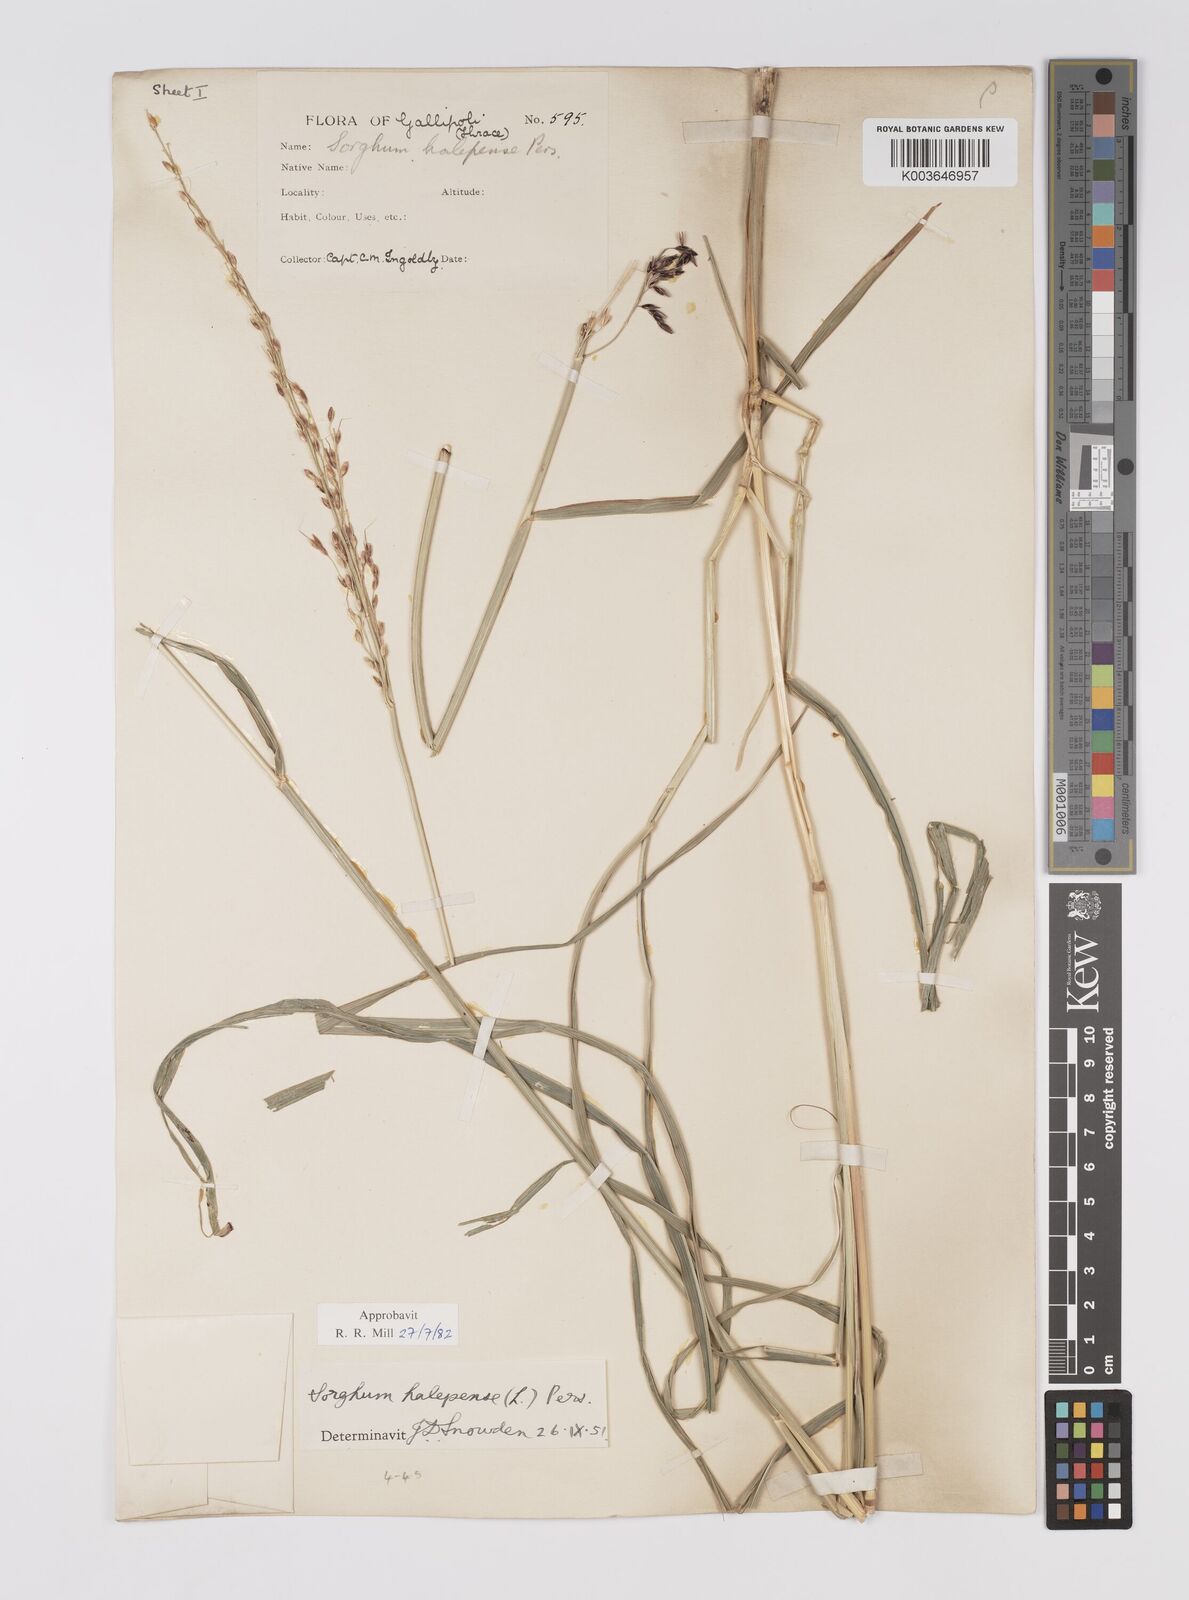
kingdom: Plantae
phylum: Tracheophyta
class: Liliopsida
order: Poales
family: Poaceae
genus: Sorghum
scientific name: Sorghum halepense
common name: Johnson-grass
